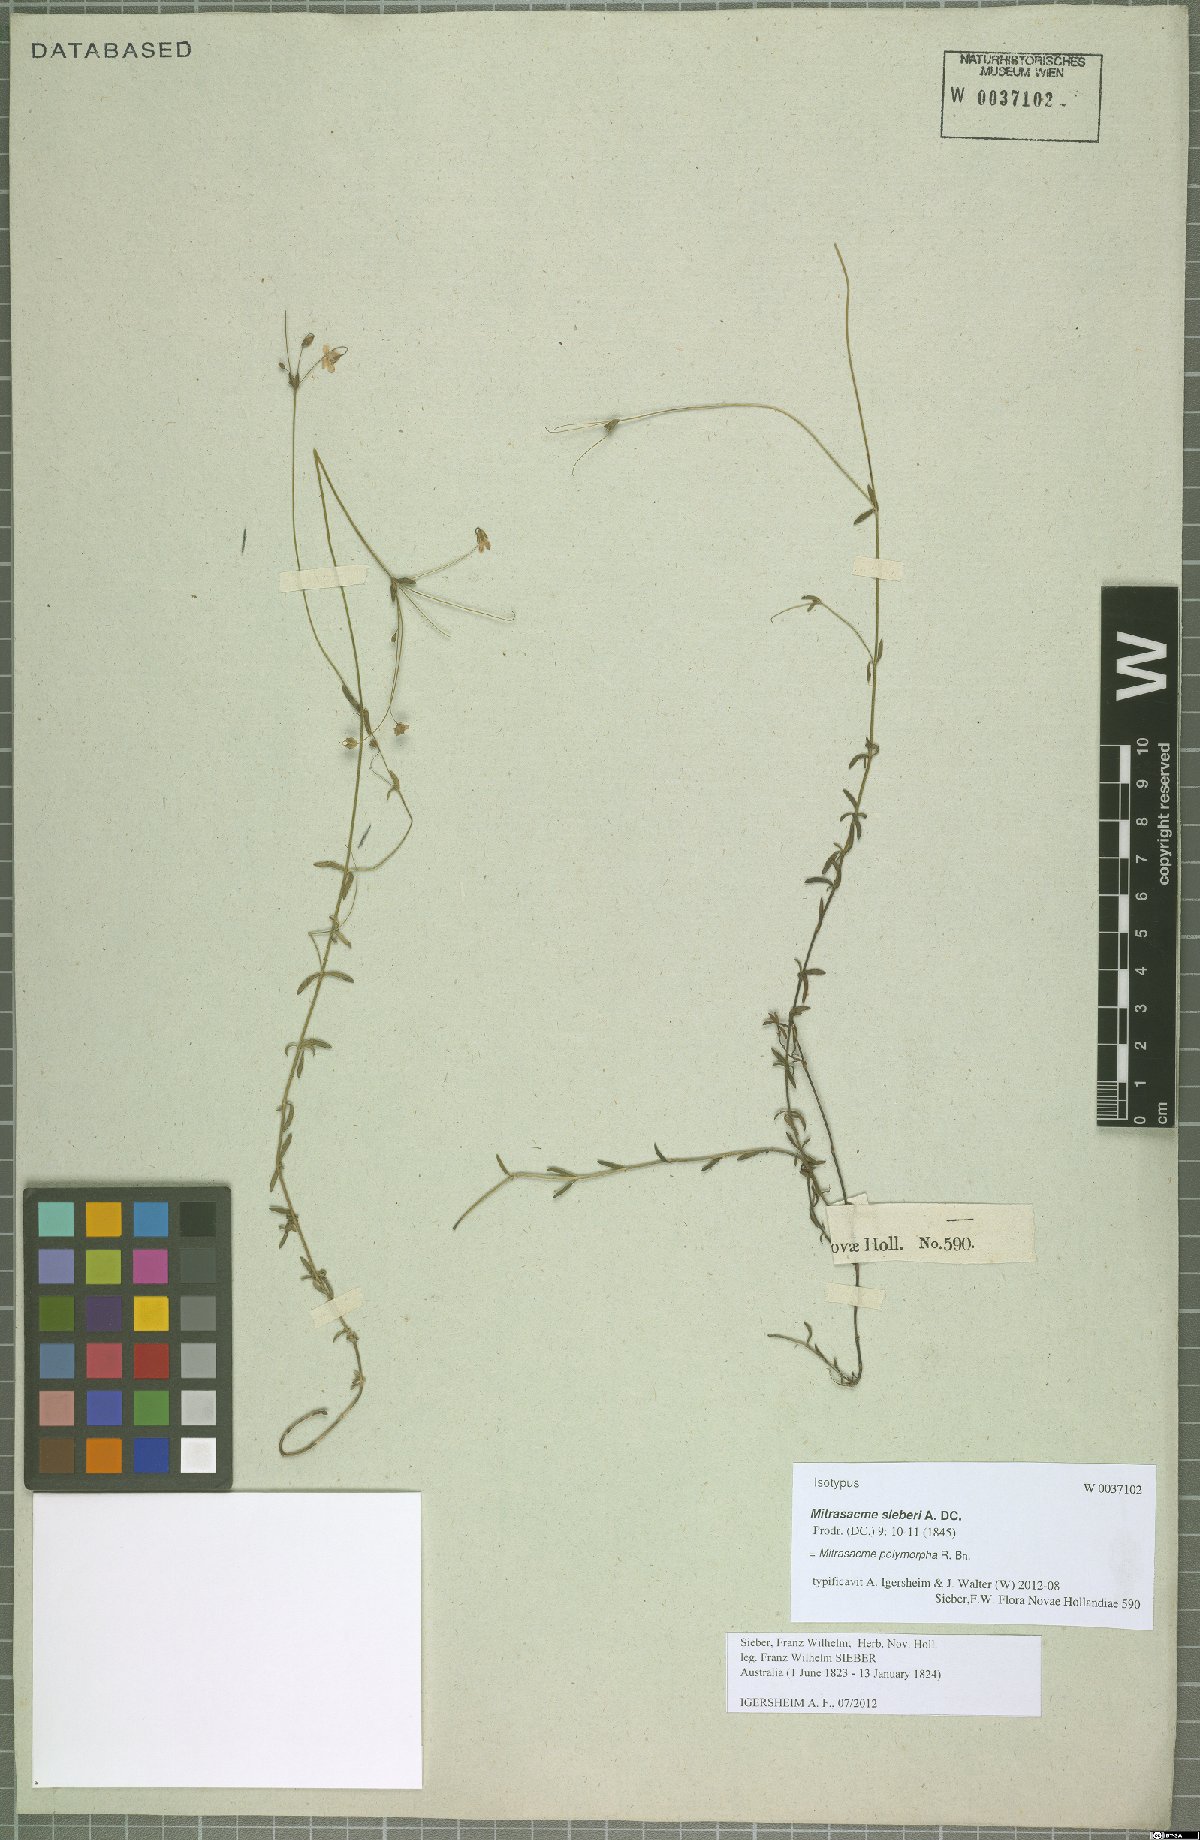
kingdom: Plantae
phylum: Tracheophyta
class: Magnoliopsida
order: Gentianales
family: Loganiaceae
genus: Mitrasacme
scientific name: Mitrasacme polymorpha
